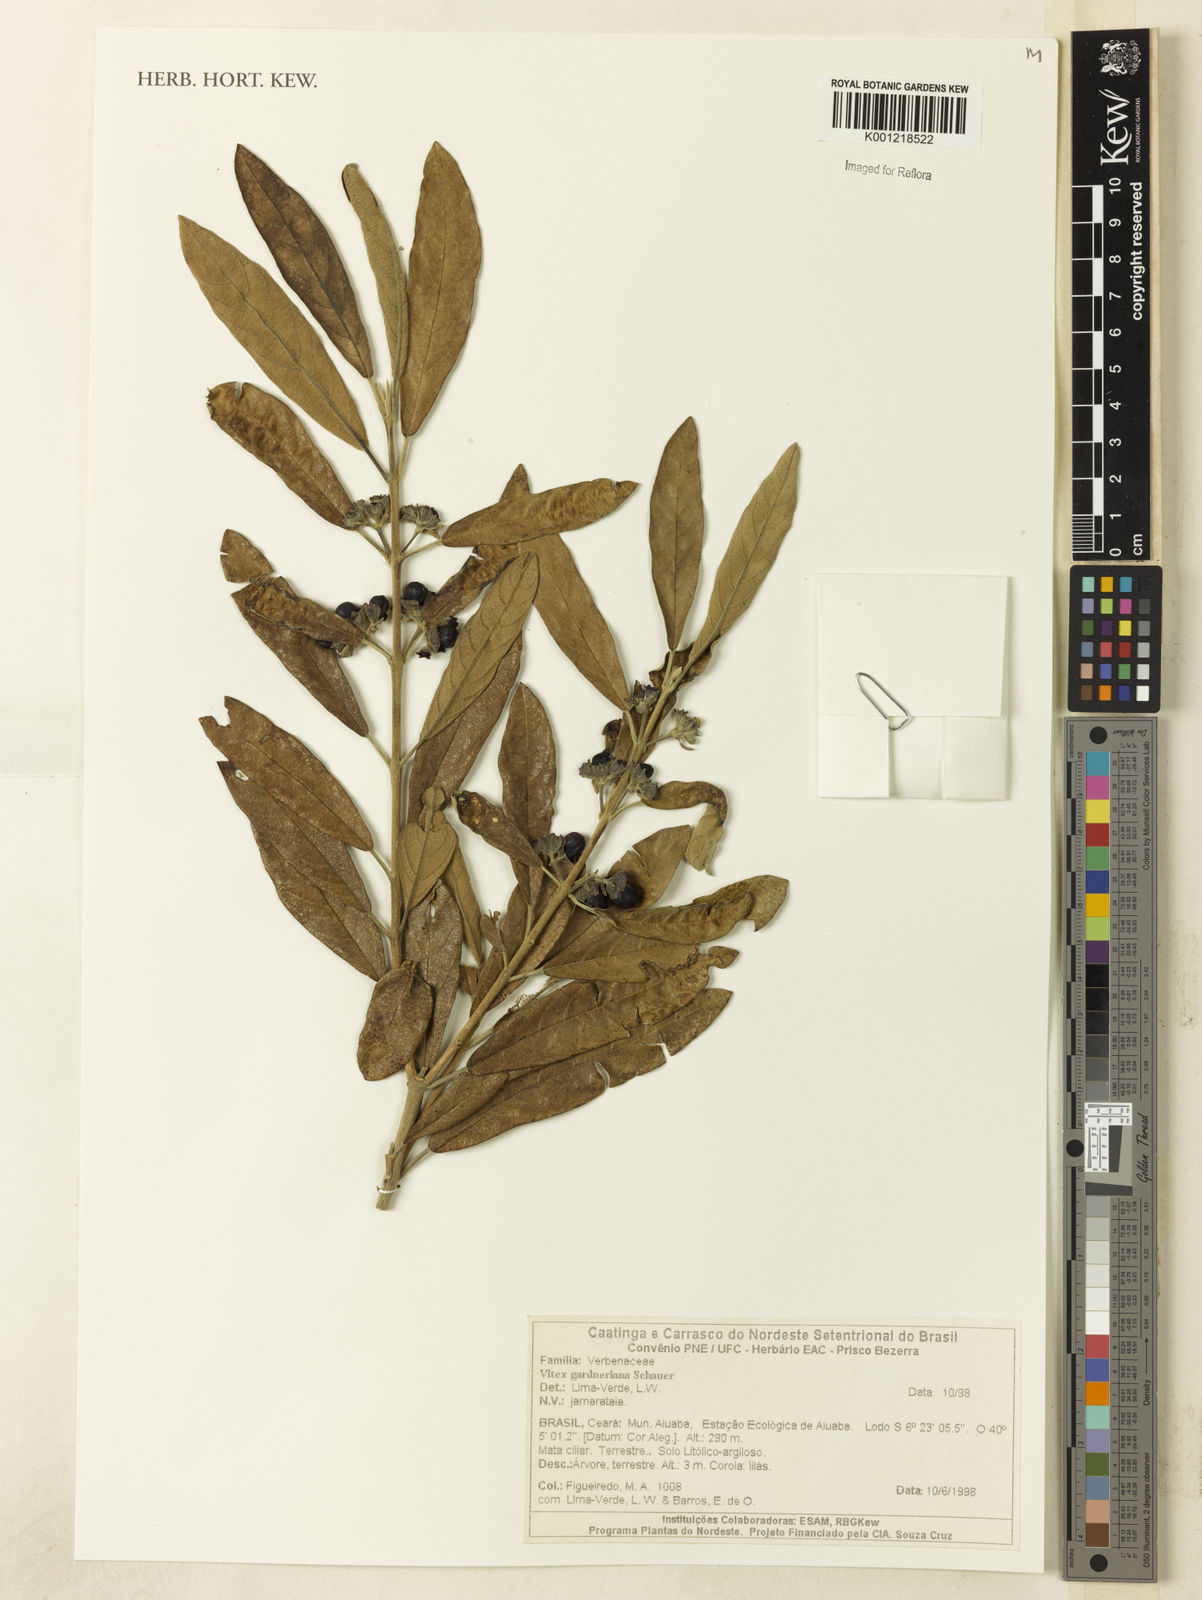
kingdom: Plantae
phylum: Tracheophyta
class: Magnoliopsida
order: Lamiales
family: Lamiaceae
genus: Vitex
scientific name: Vitex gardneriana
